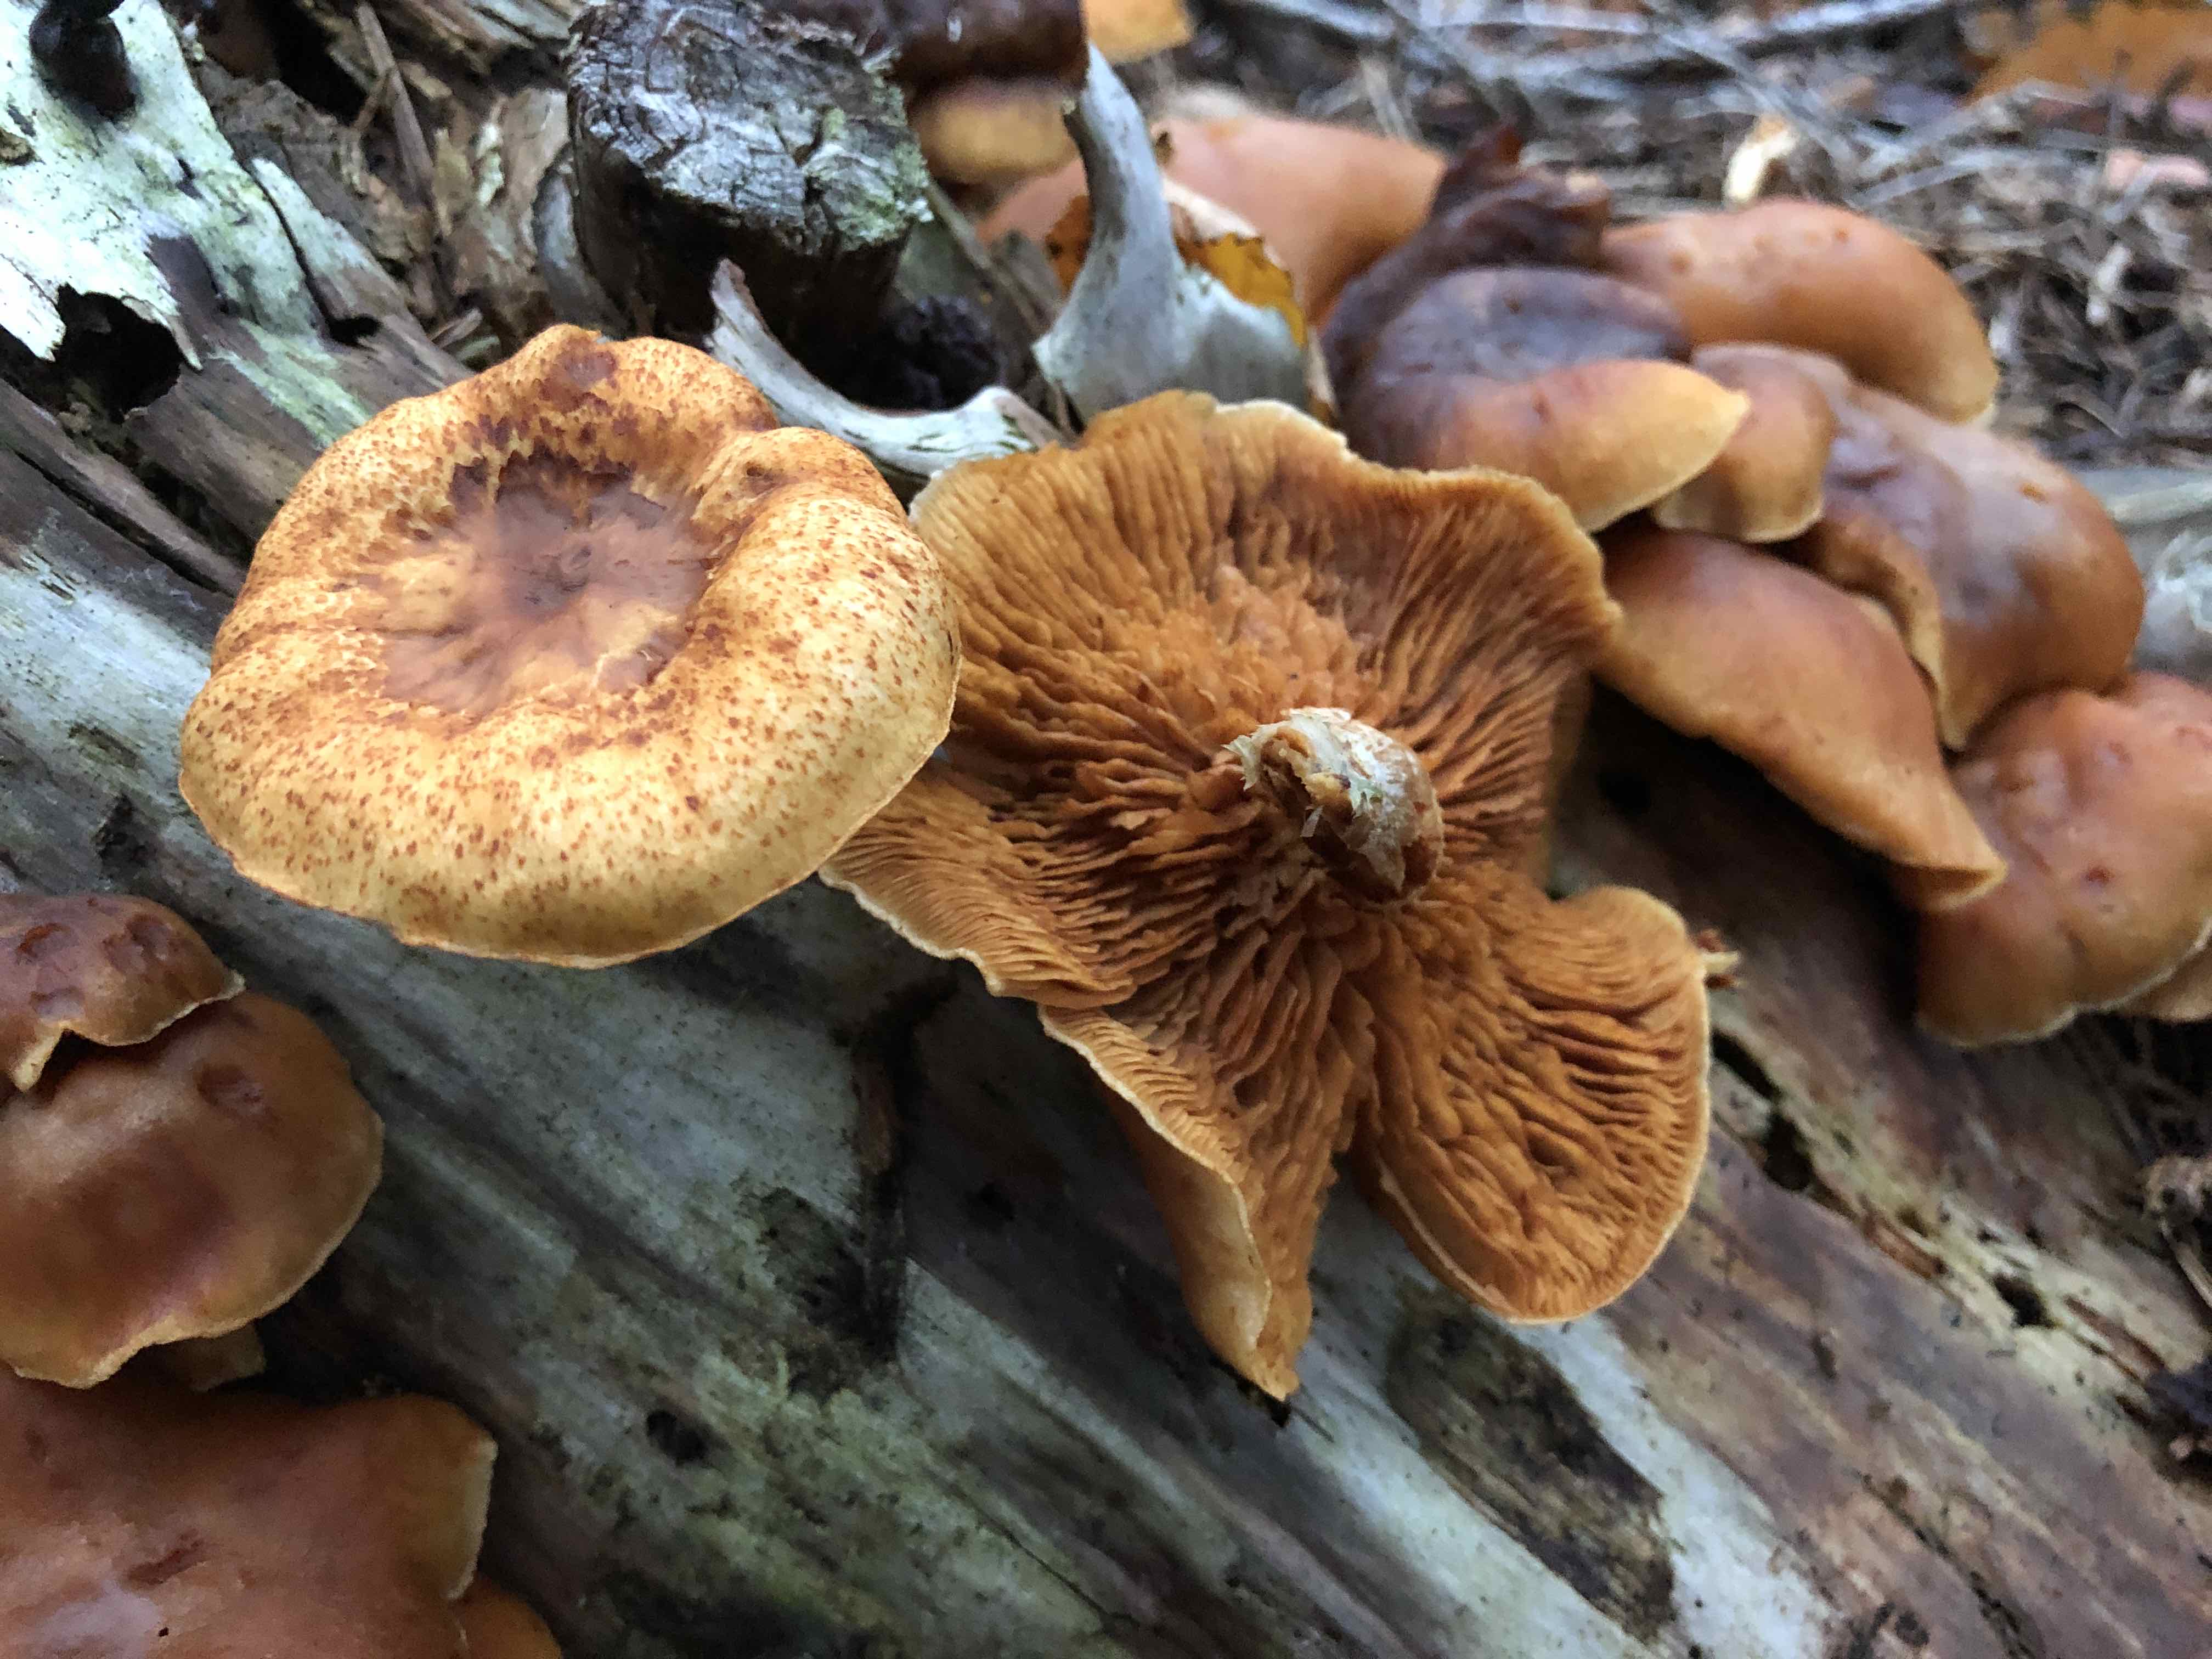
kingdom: Fungi
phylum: Basidiomycota
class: Agaricomycetes
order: Agaricales
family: Hymenogastraceae
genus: Gymnopilus
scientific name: Gymnopilus penetrans
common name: plettet flammehat
